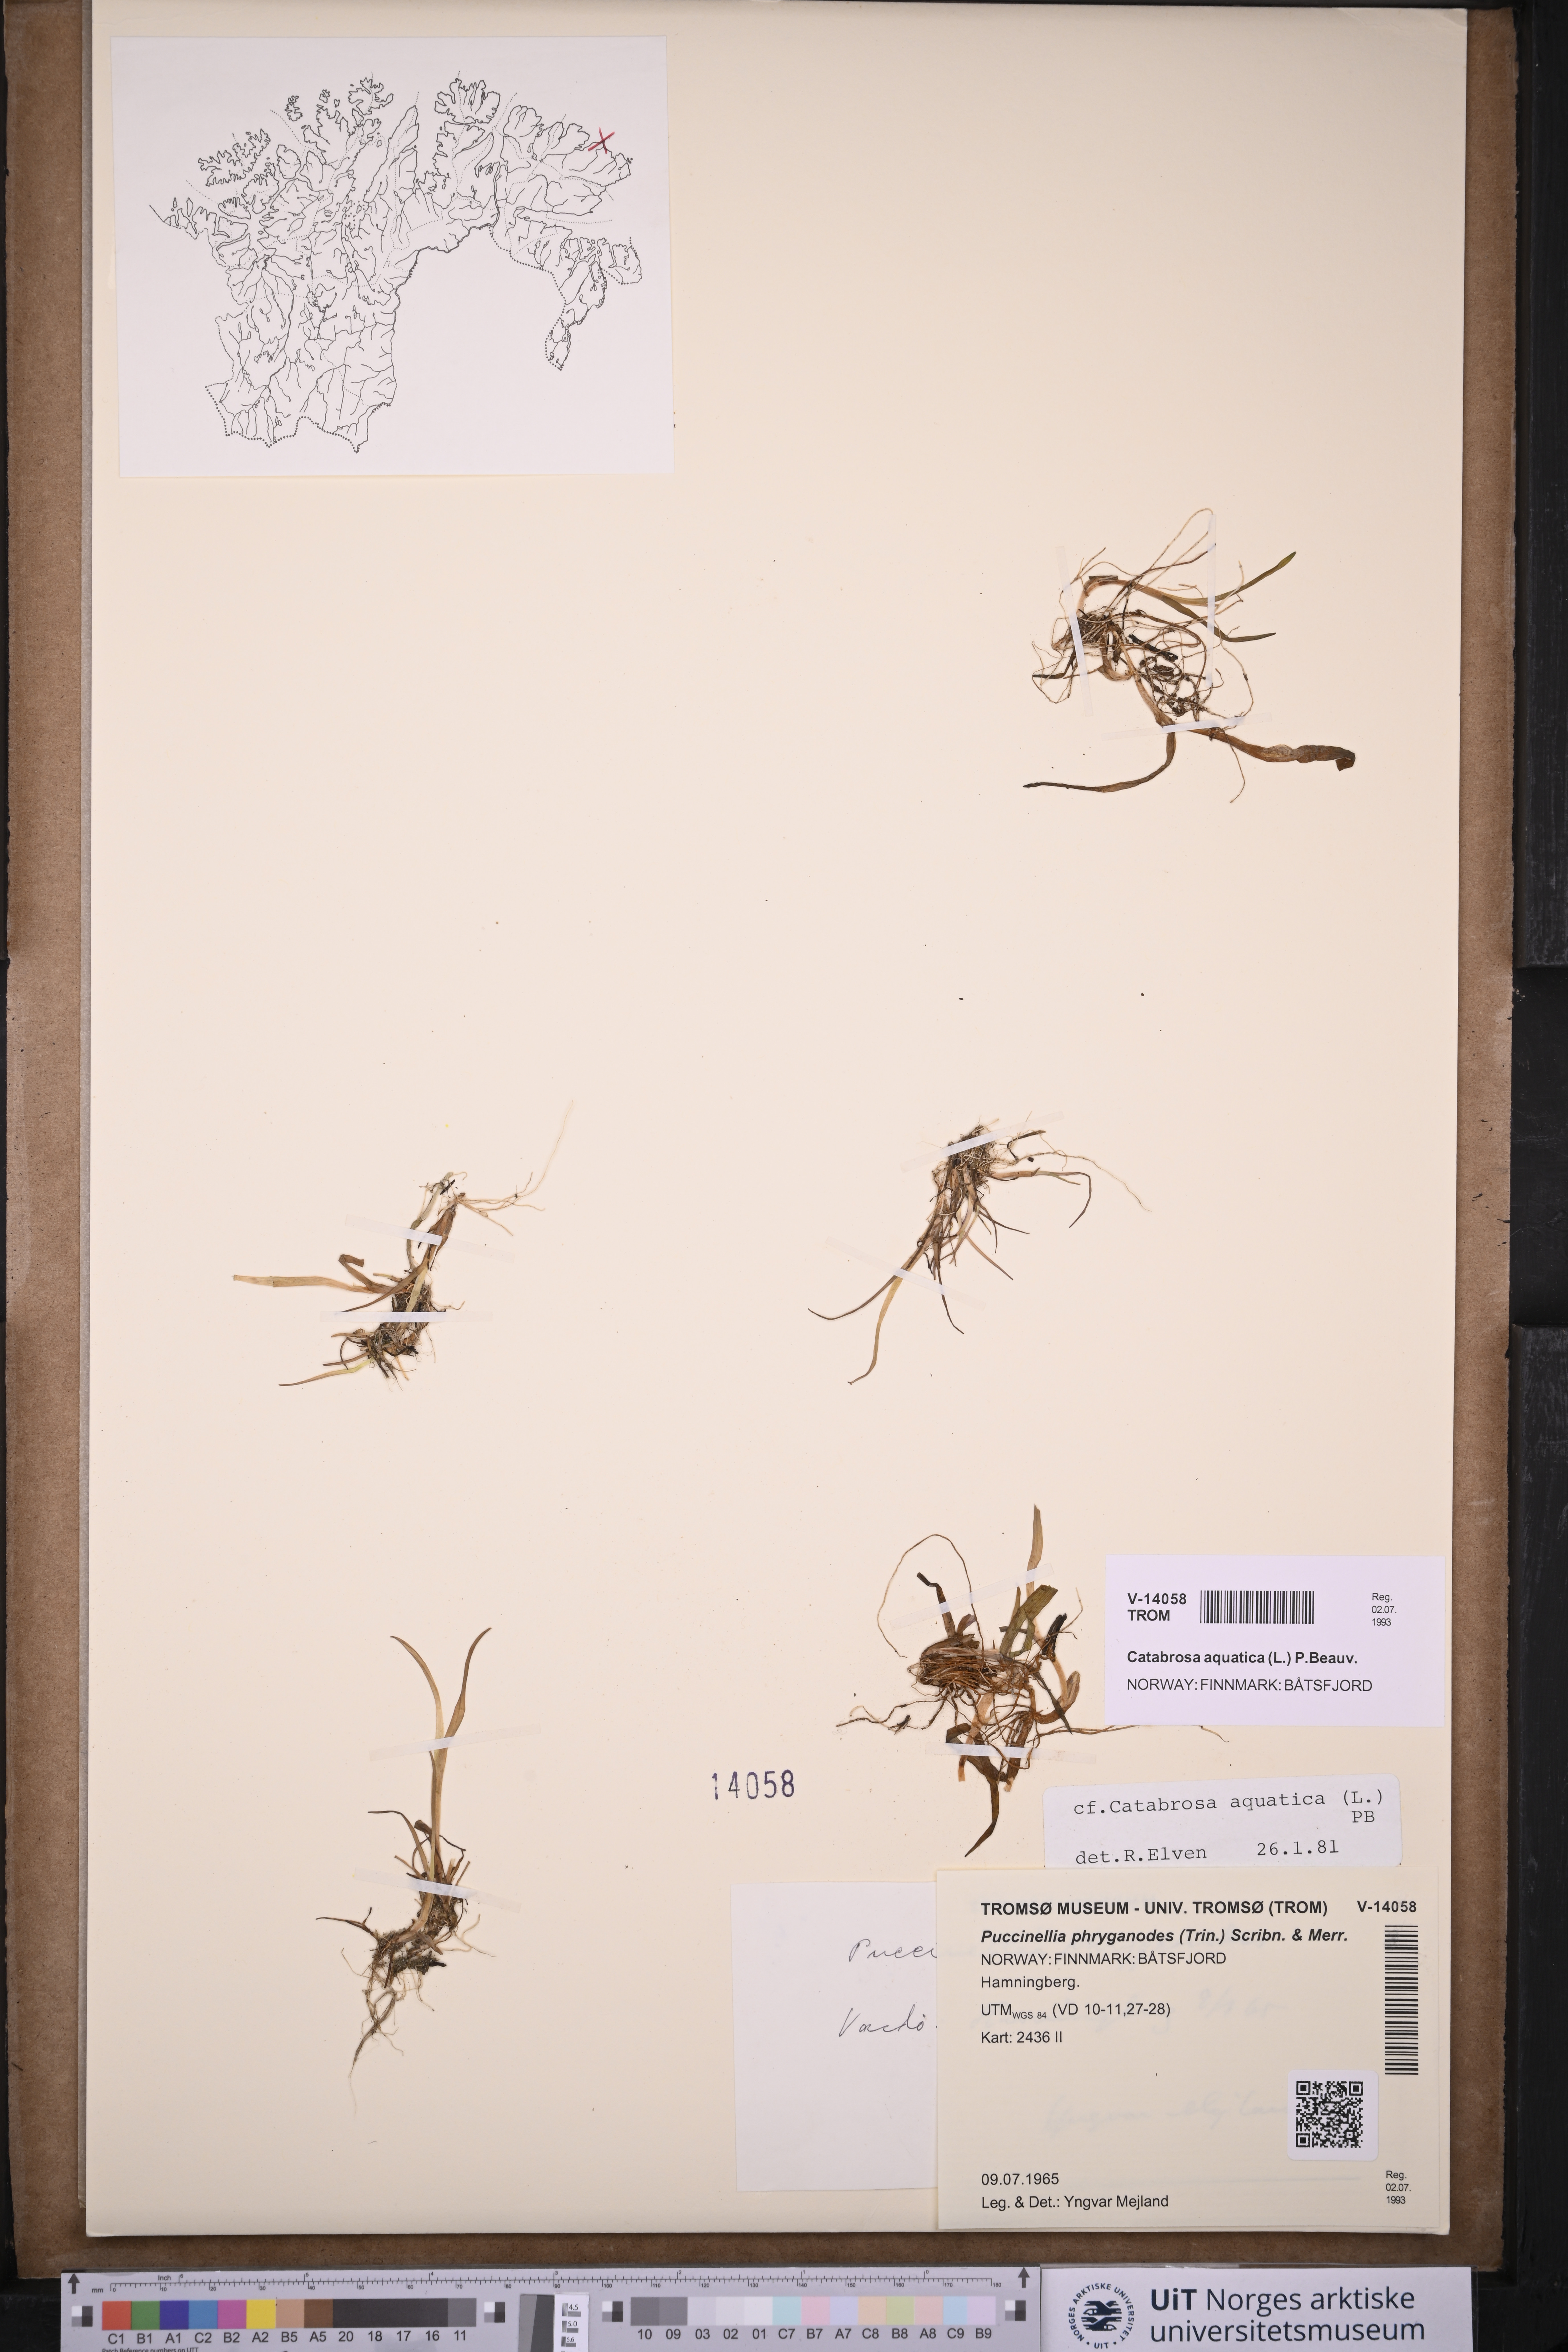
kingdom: Plantae
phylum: Tracheophyta
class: Liliopsida
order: Poales
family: Poaceae
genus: Catabrosa
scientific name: Catabrosa aquatica
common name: Whorl-grass
